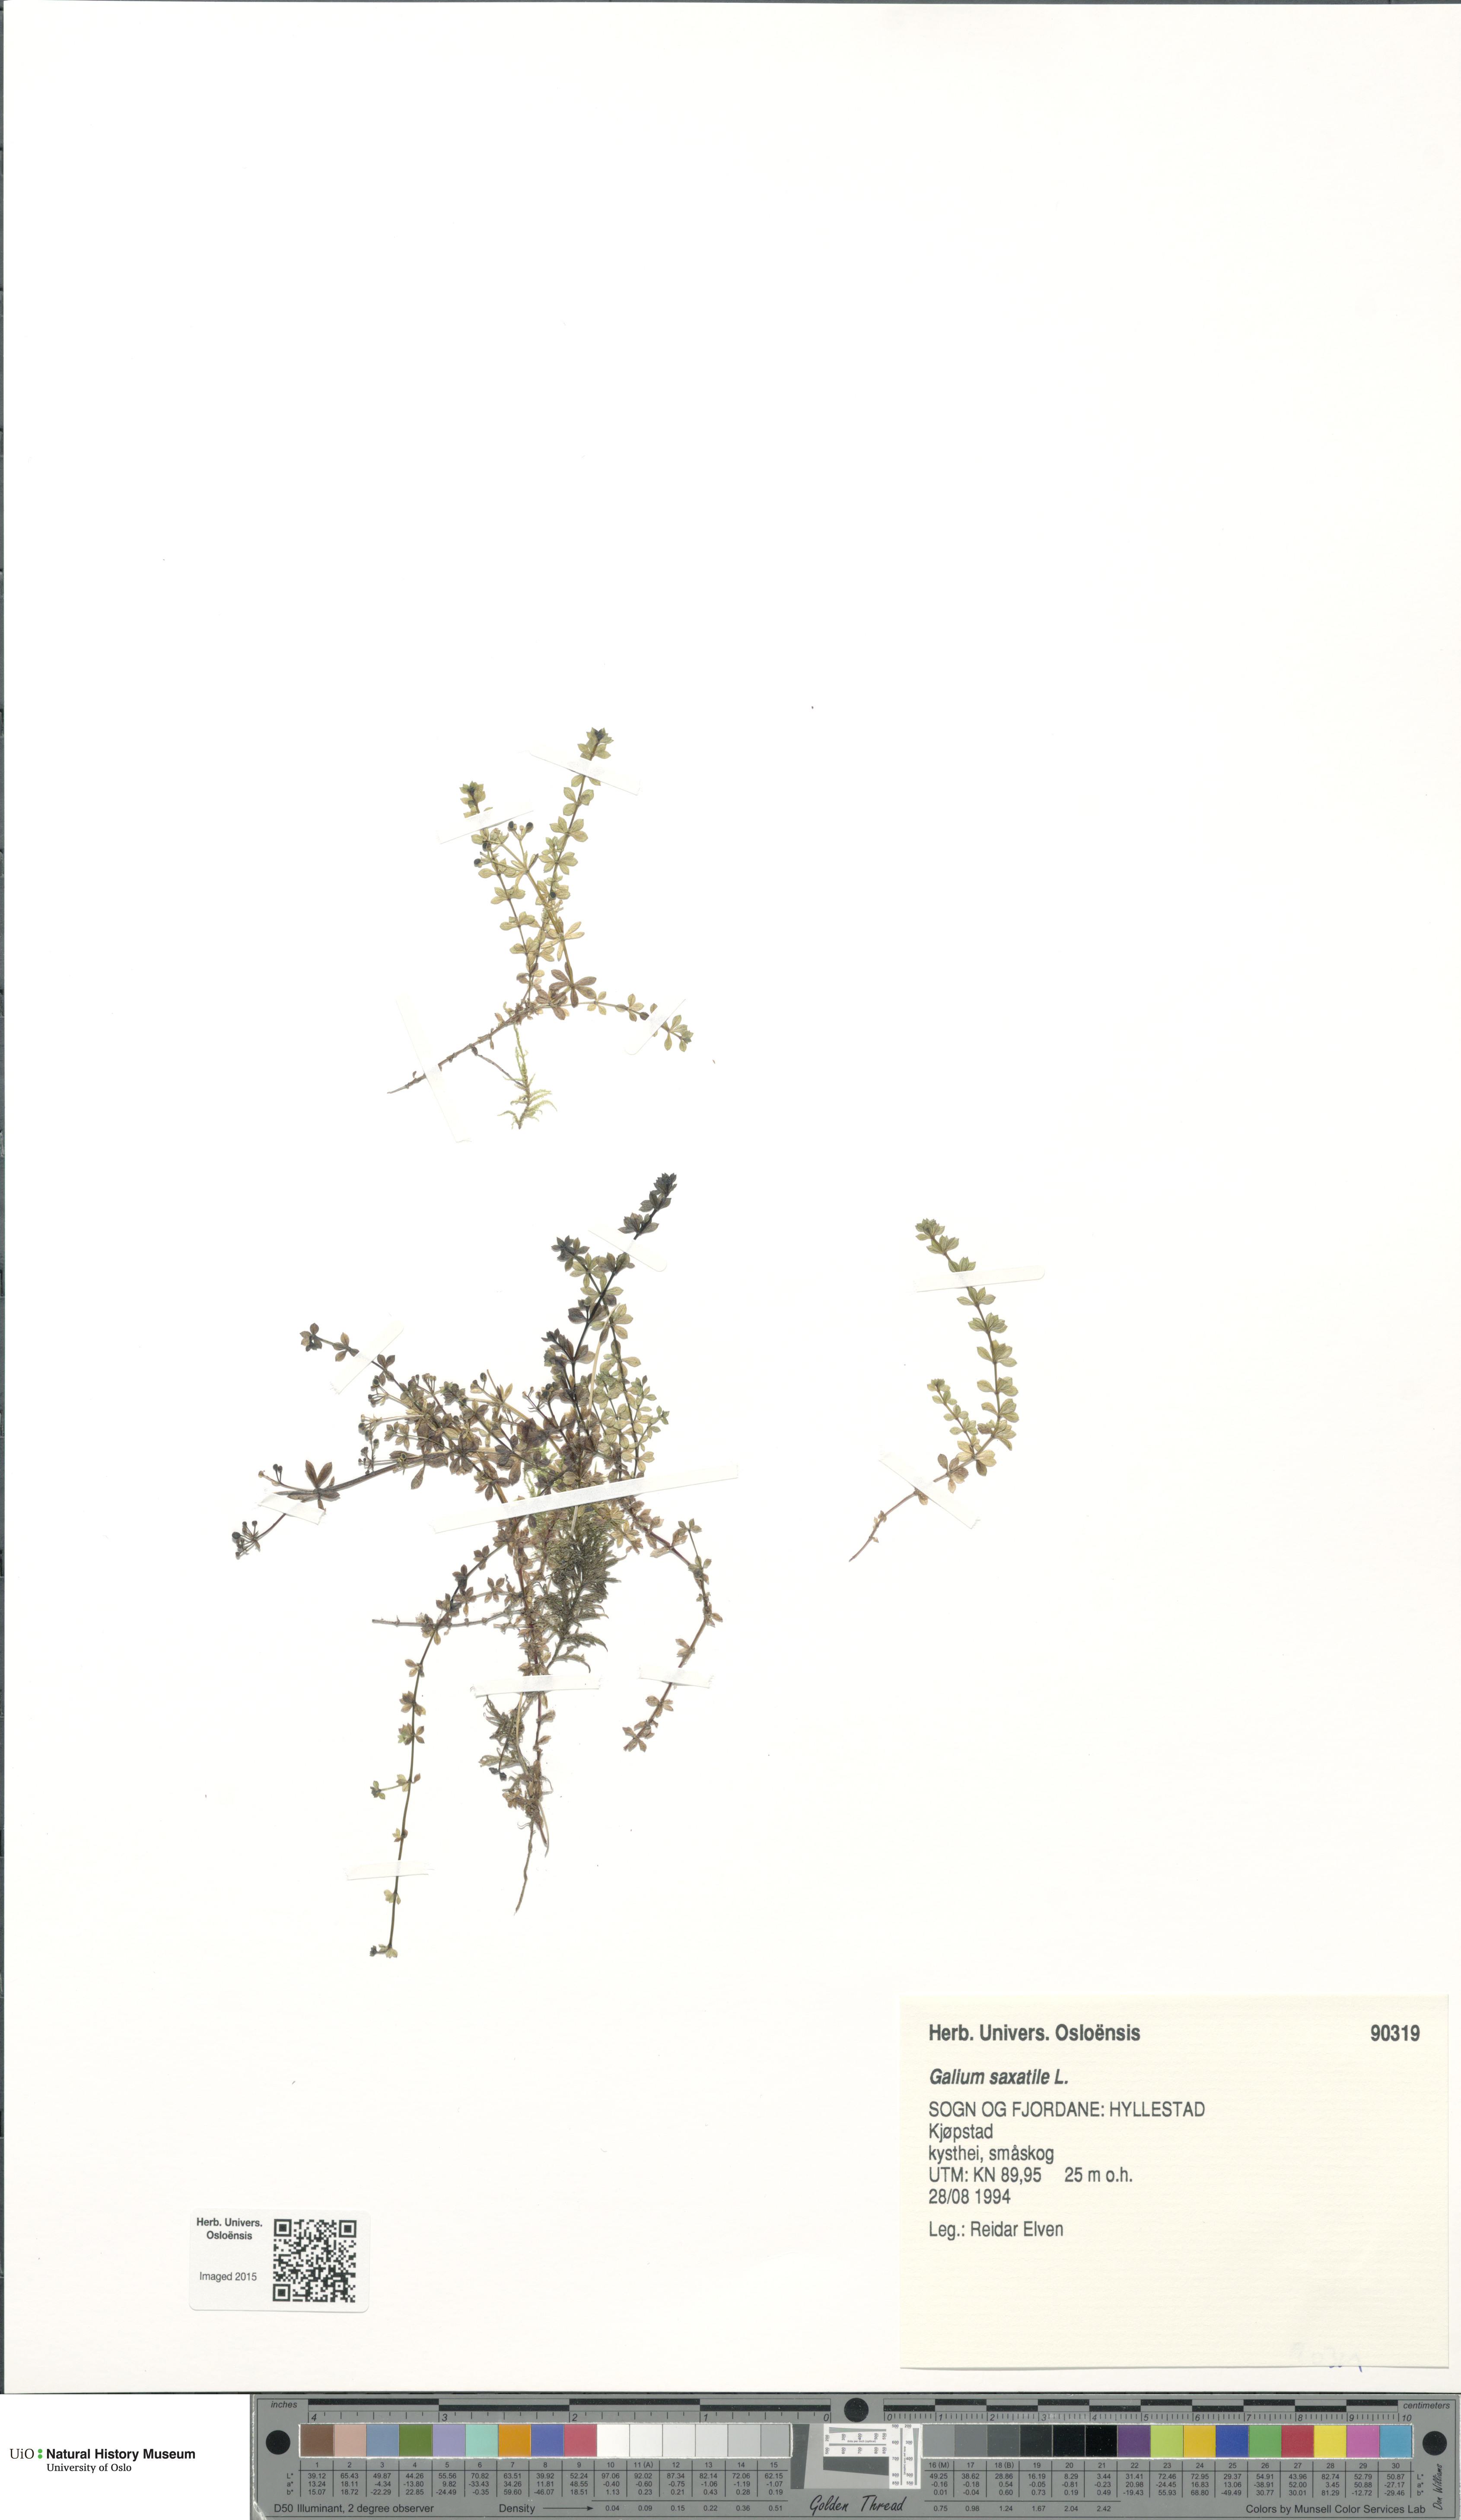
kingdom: Plantae
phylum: Tracheophyta
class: Magnoliopsida
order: Gentianales
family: Rubiaceae
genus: Galium
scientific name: Galium saxatile
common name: Heath bedstraw
